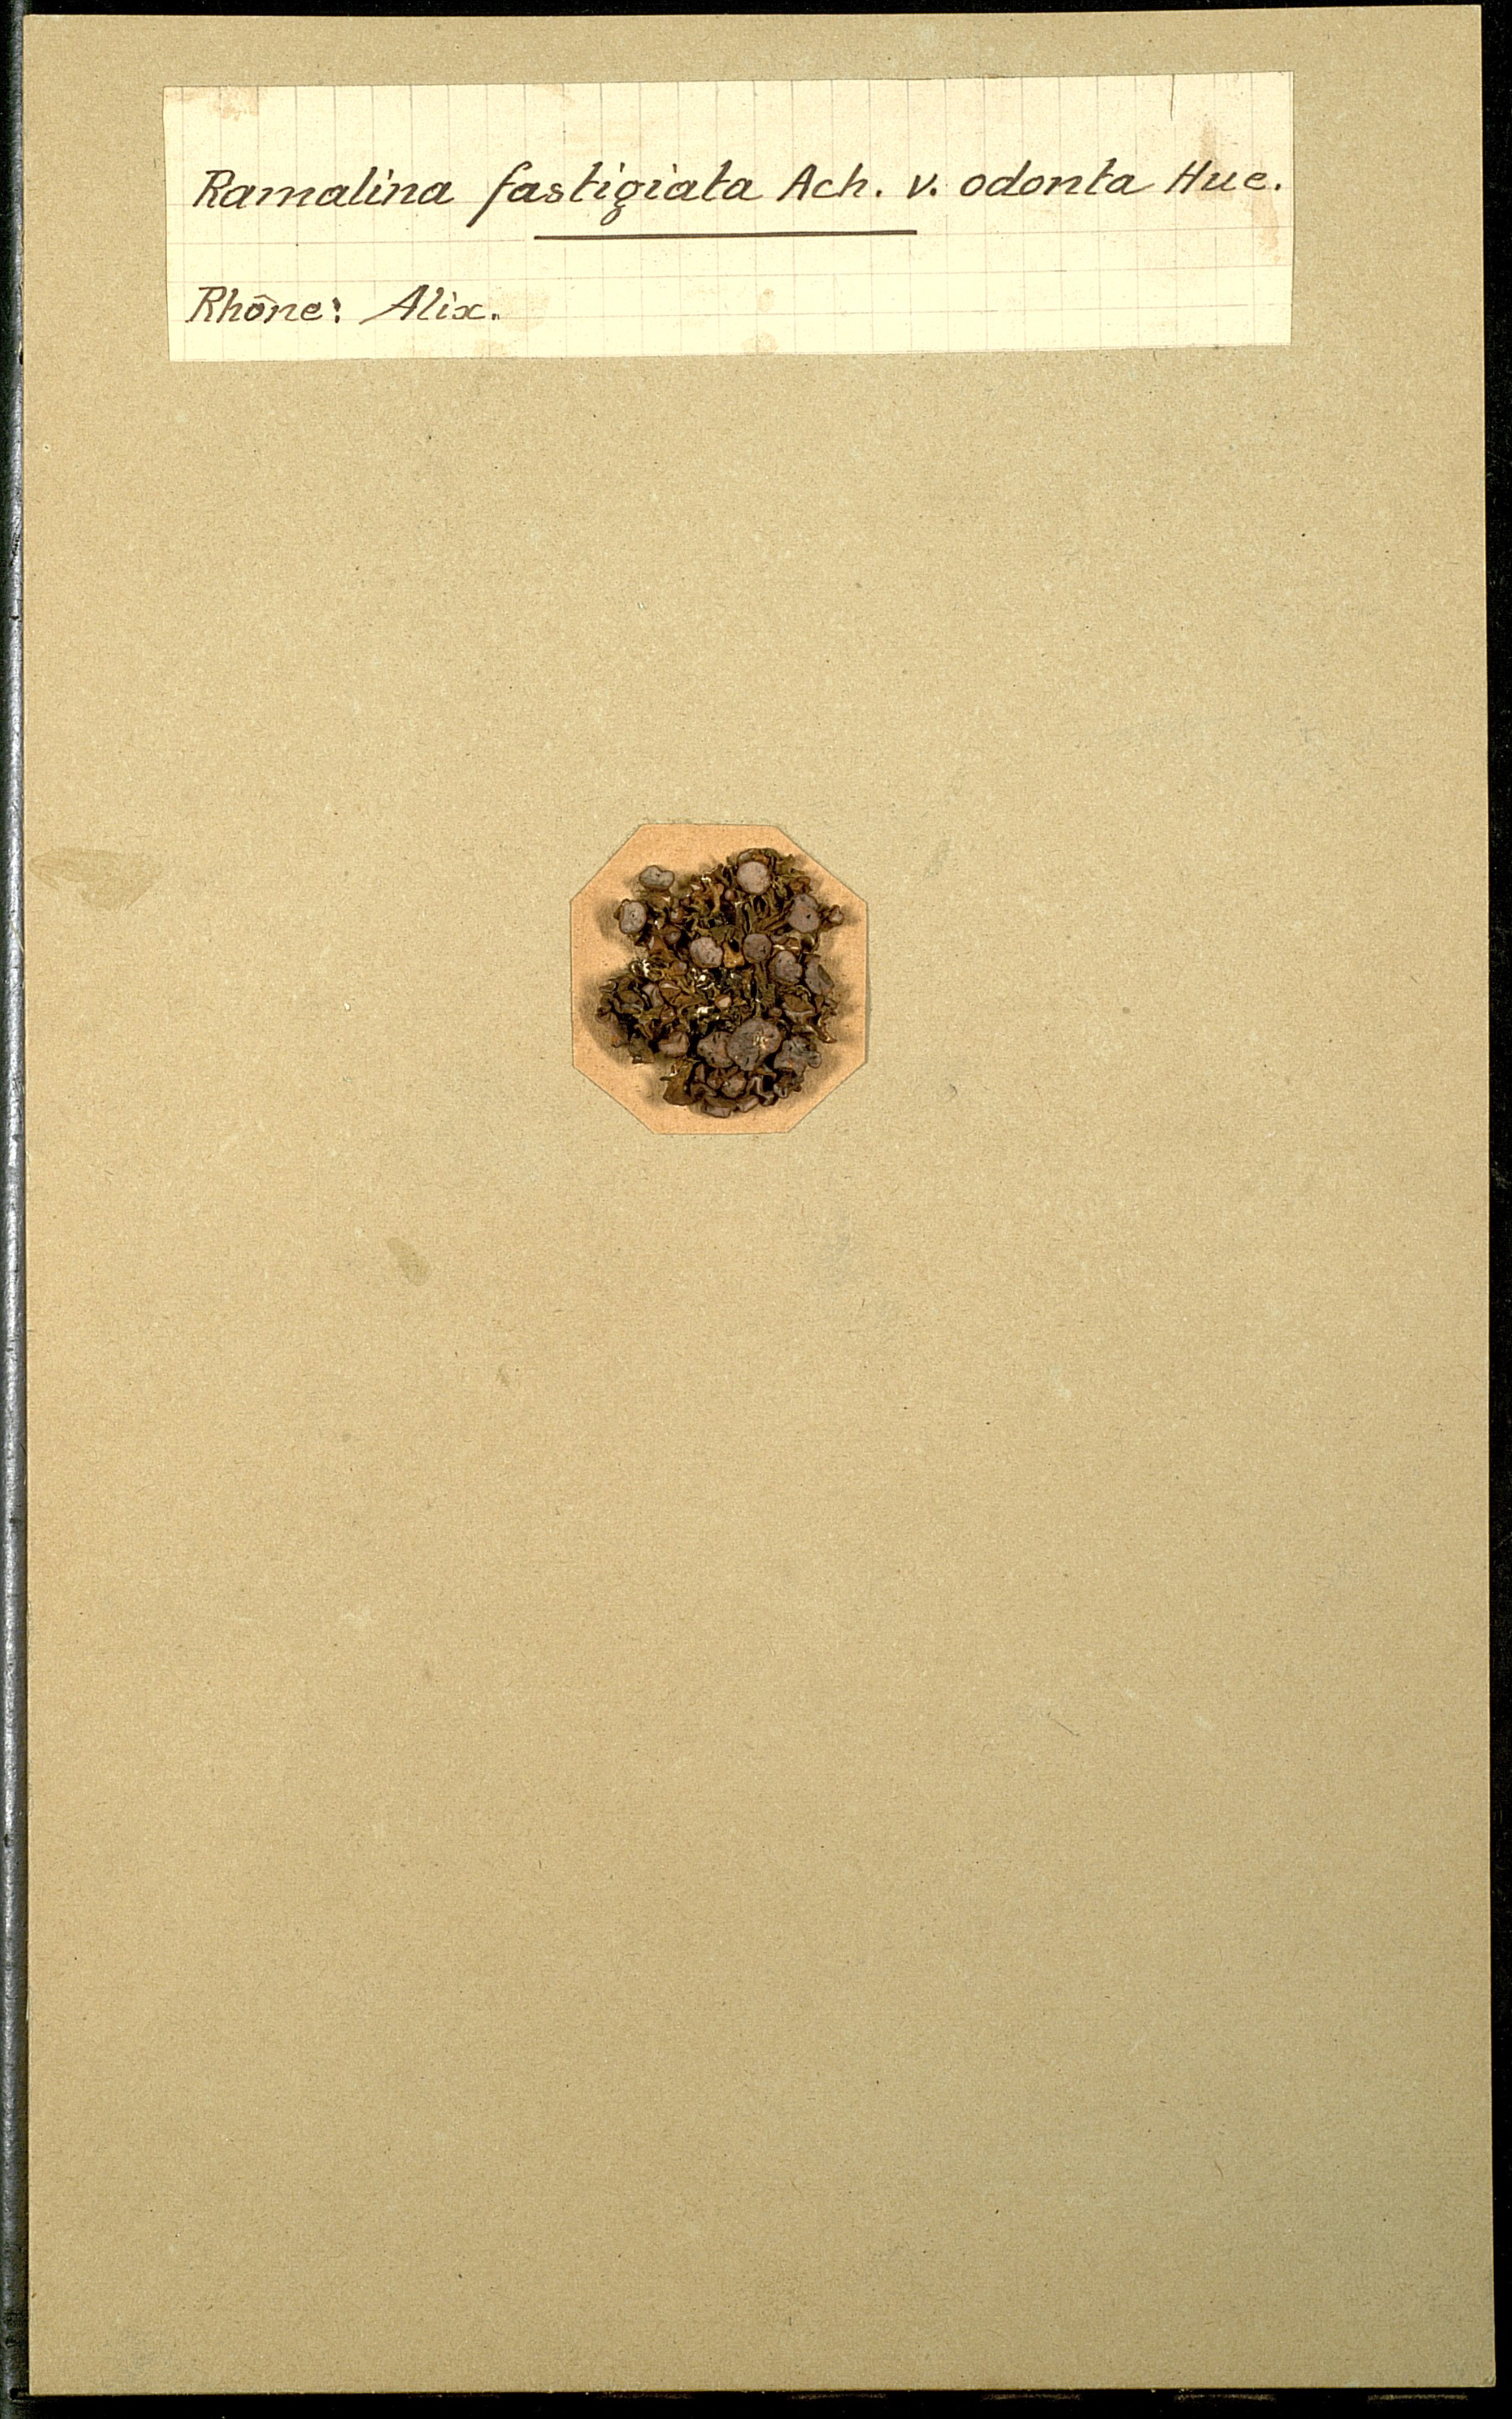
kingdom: Fungi
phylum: Ascomycota
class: Lecanoromycetes
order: Lecanorales
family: Ramalinaceae
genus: Ramalina
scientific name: Ramalina fastigiata
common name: Dotted ribbon lichen
